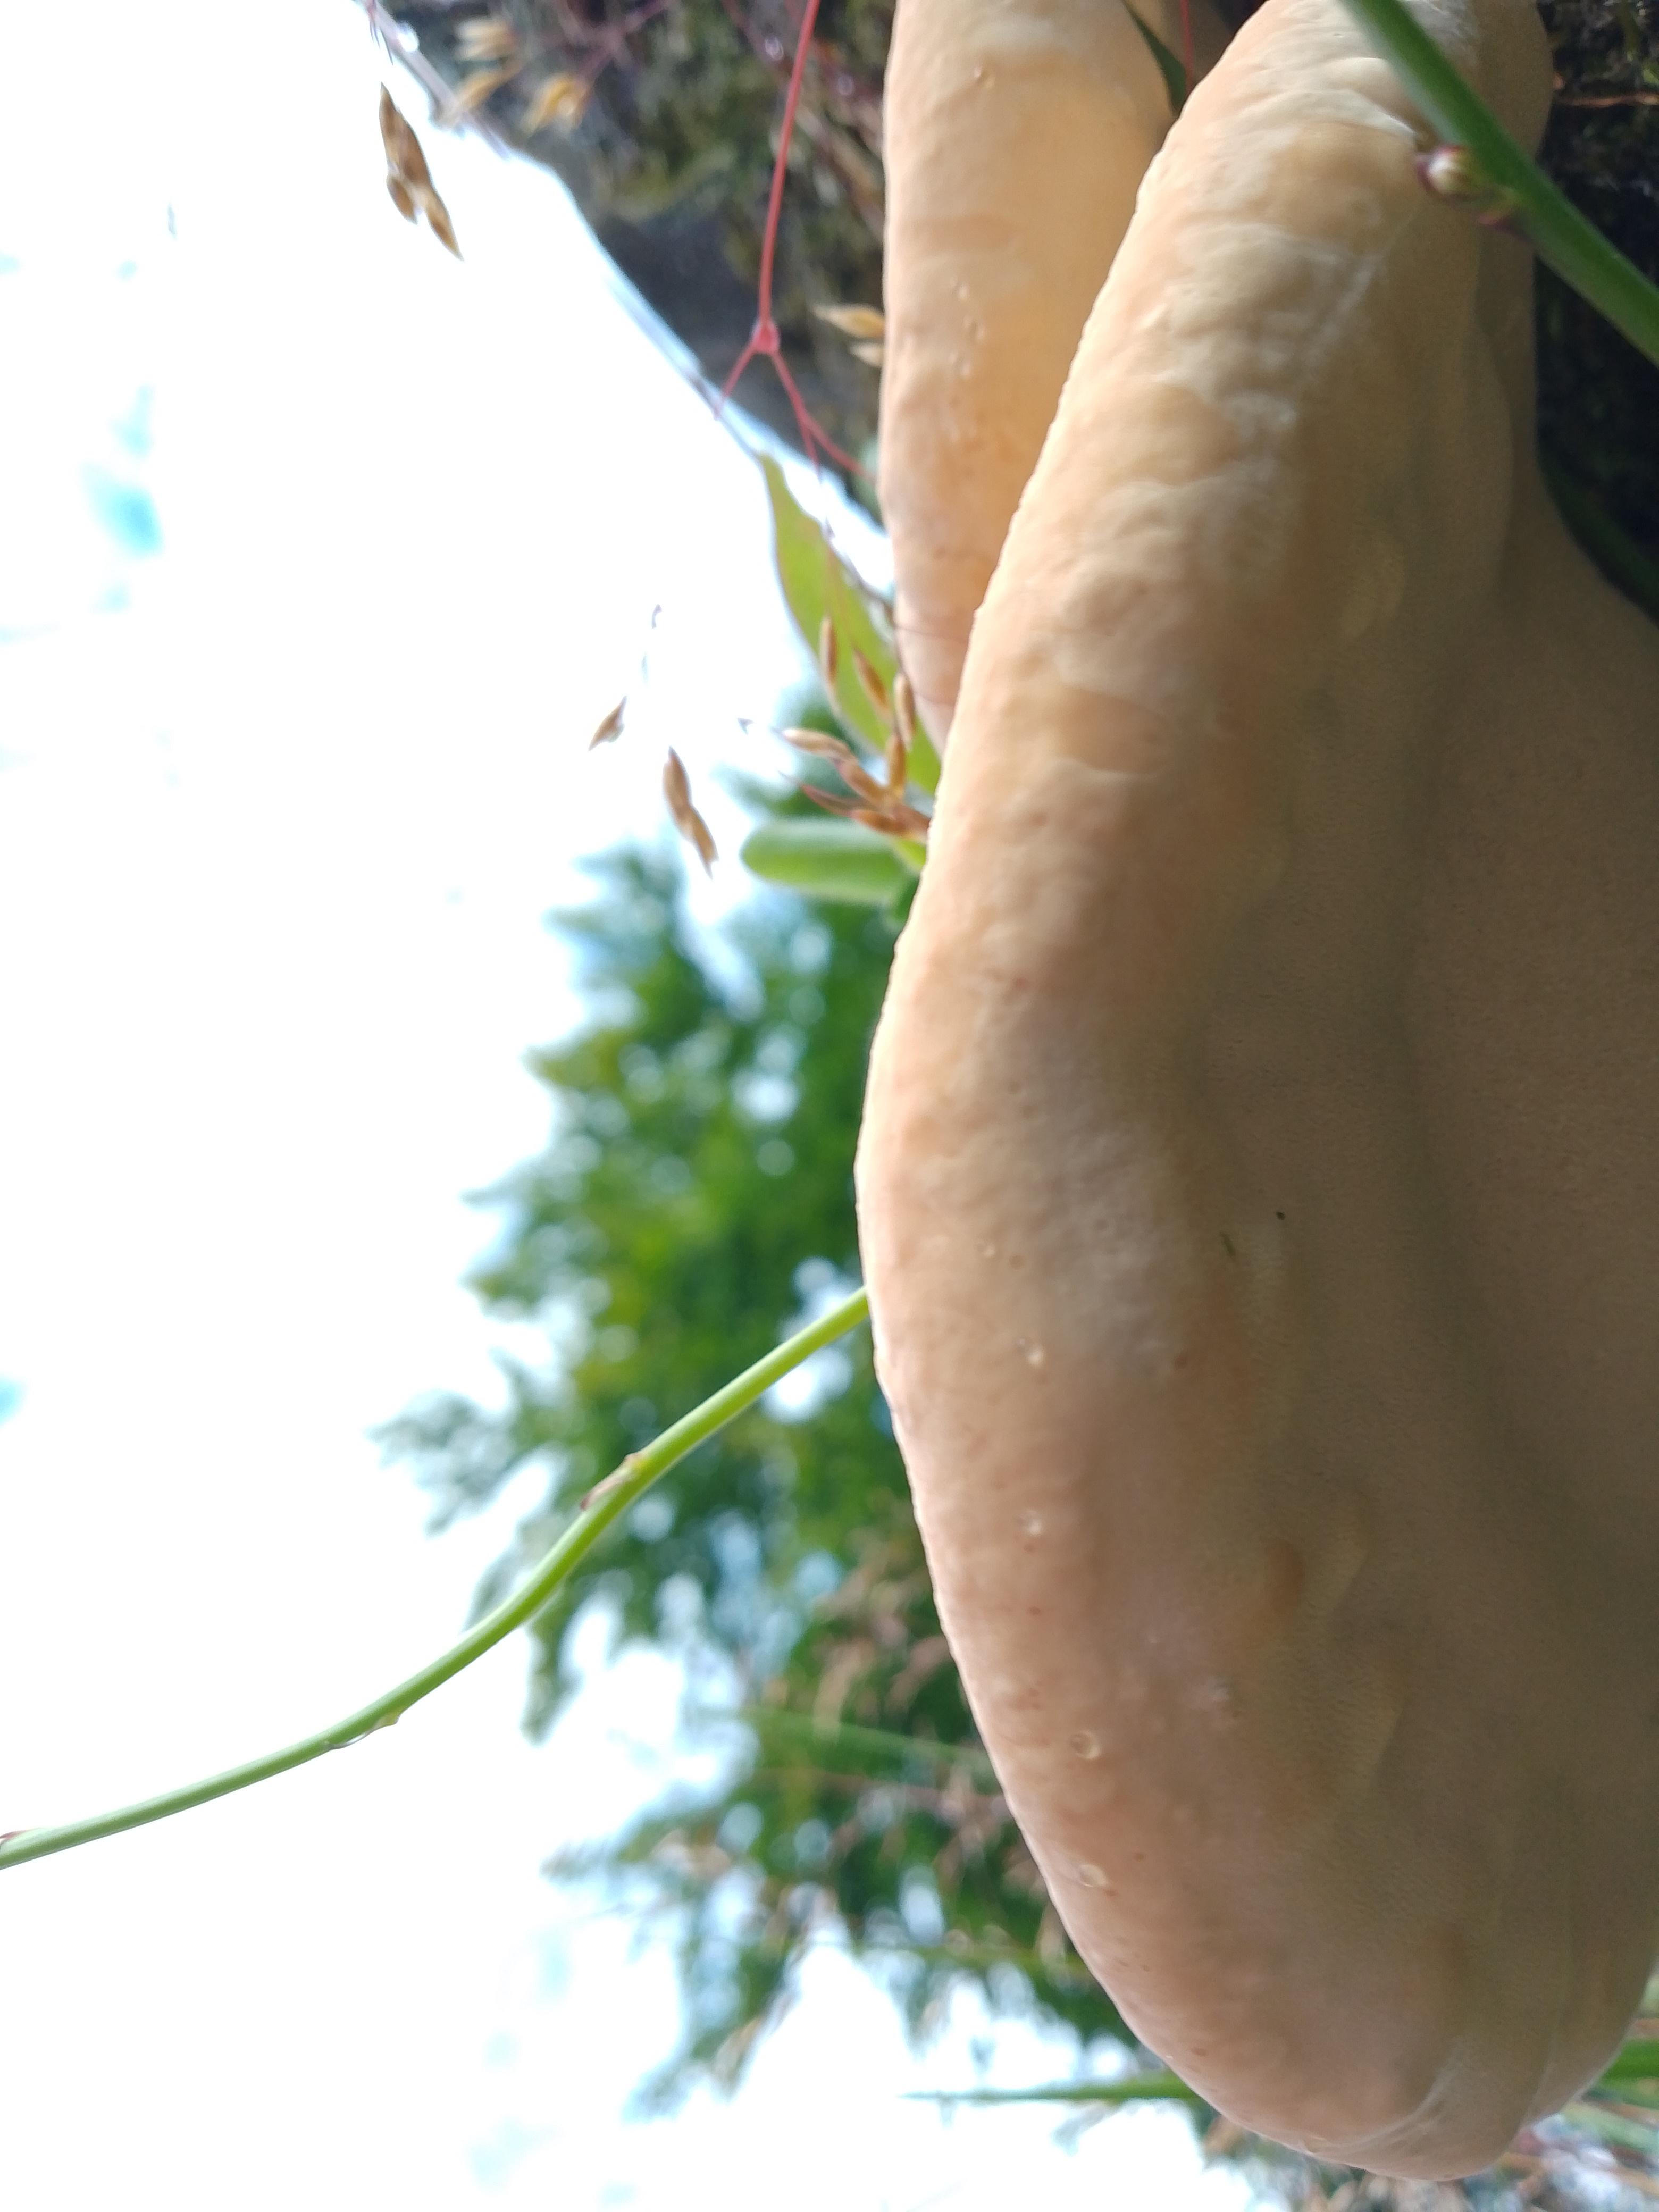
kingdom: Fungi
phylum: Basidiomycota
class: Agaricomycetes
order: Polyporales
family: Fomitopsidaceae
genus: Fomitopsis
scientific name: Fomitopsis pinicola
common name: randbæltet hovporesvamp
